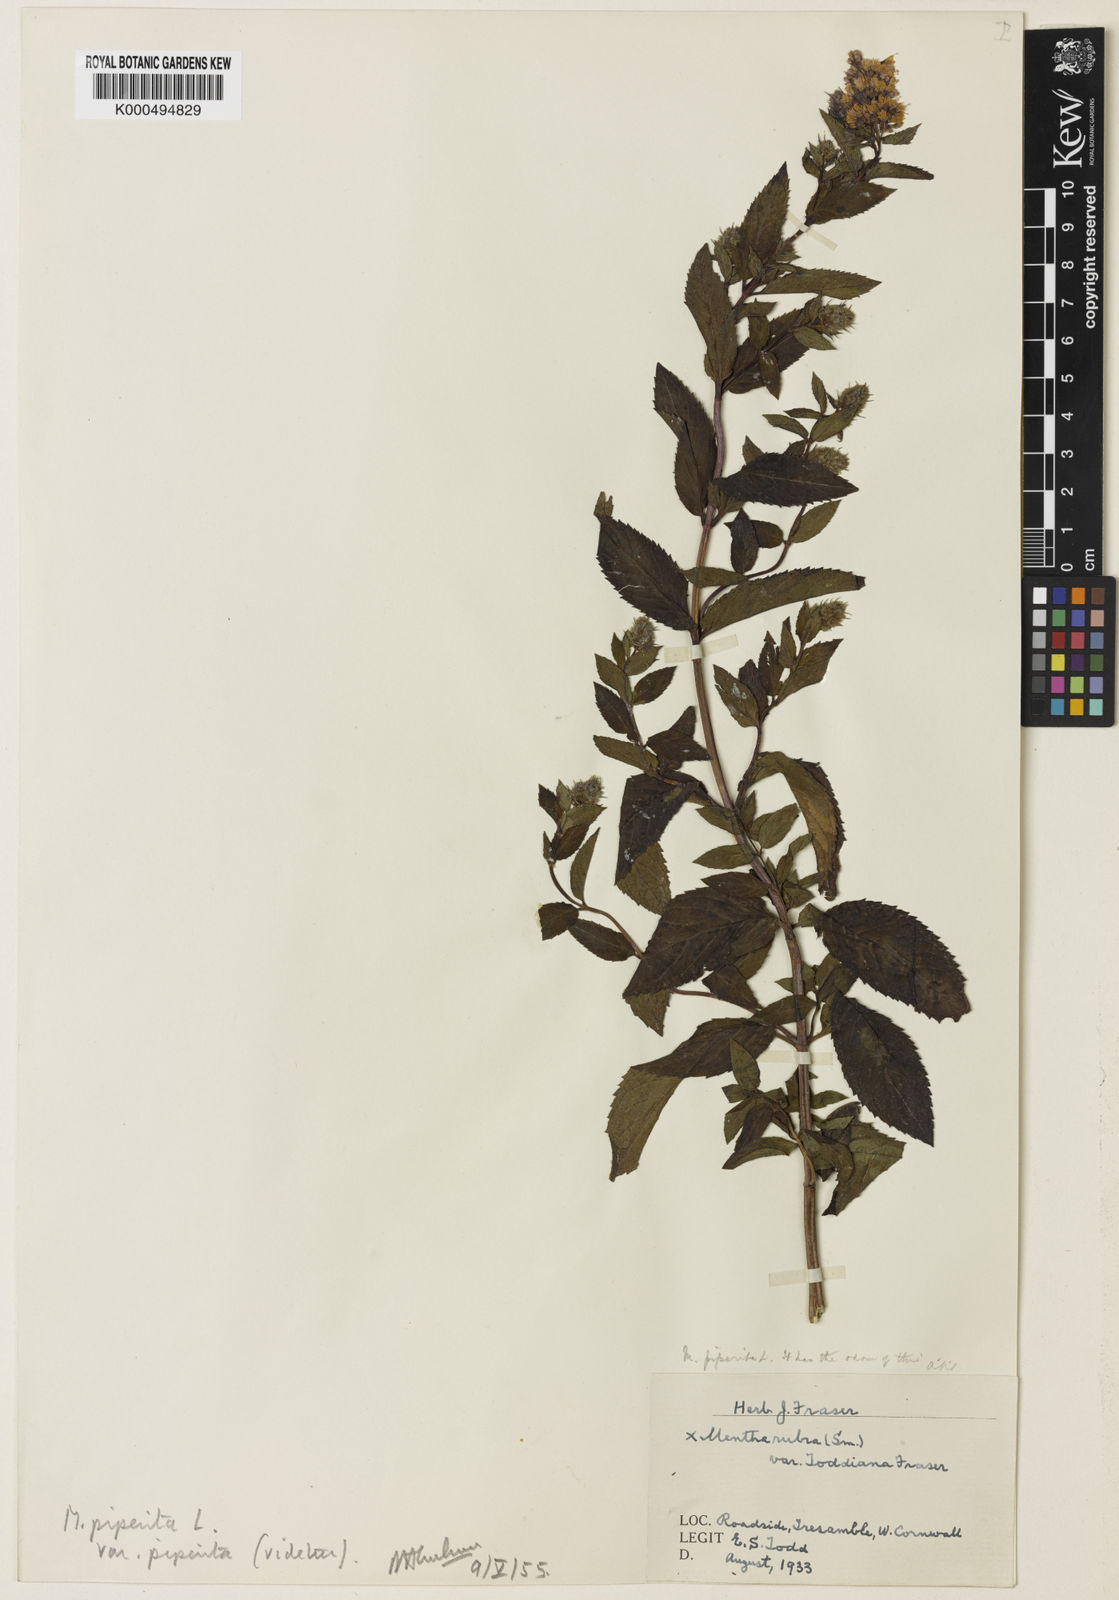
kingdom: Plantae
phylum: Tracheophyta
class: Magnoliopsida
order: Lamiales
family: Lamiaceae
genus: Mentha
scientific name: Mentha
